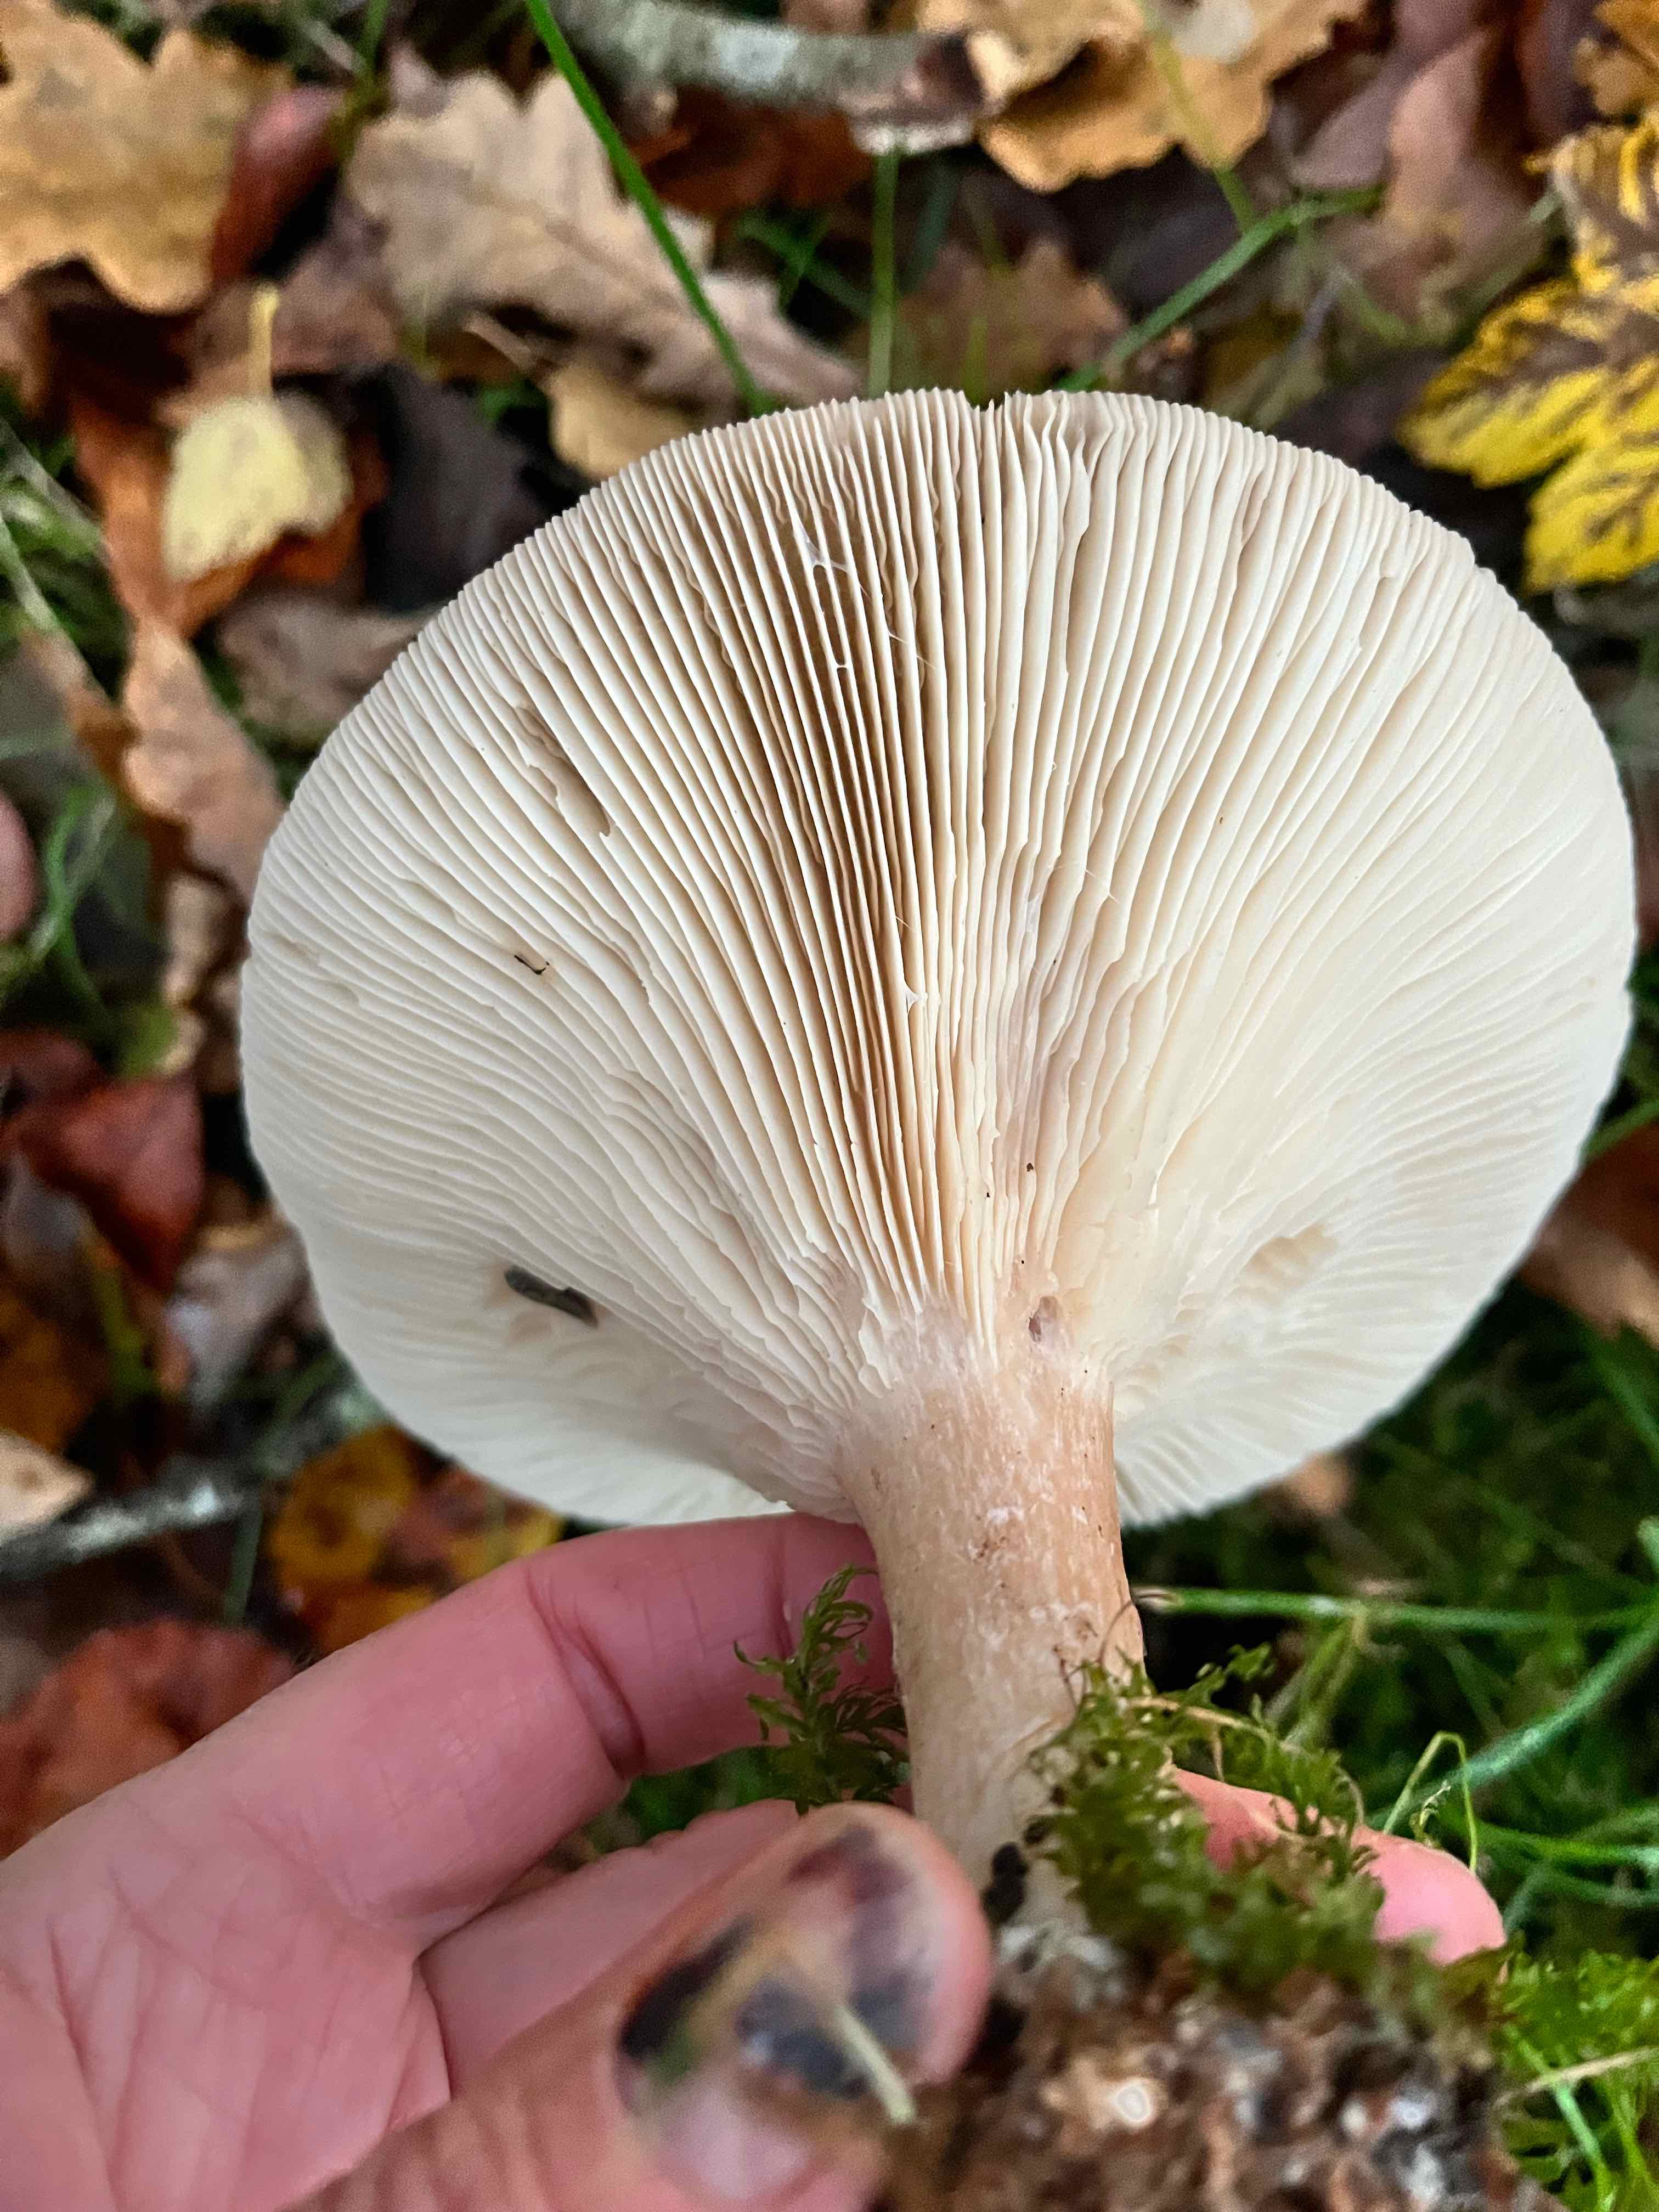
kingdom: Fungi
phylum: Basidiomycota
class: Agaricomycetes
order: Agaricales
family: Tricholomataceae
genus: Infundibulicybe
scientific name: Infundibulicybe geotropa
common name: stor tragthat
